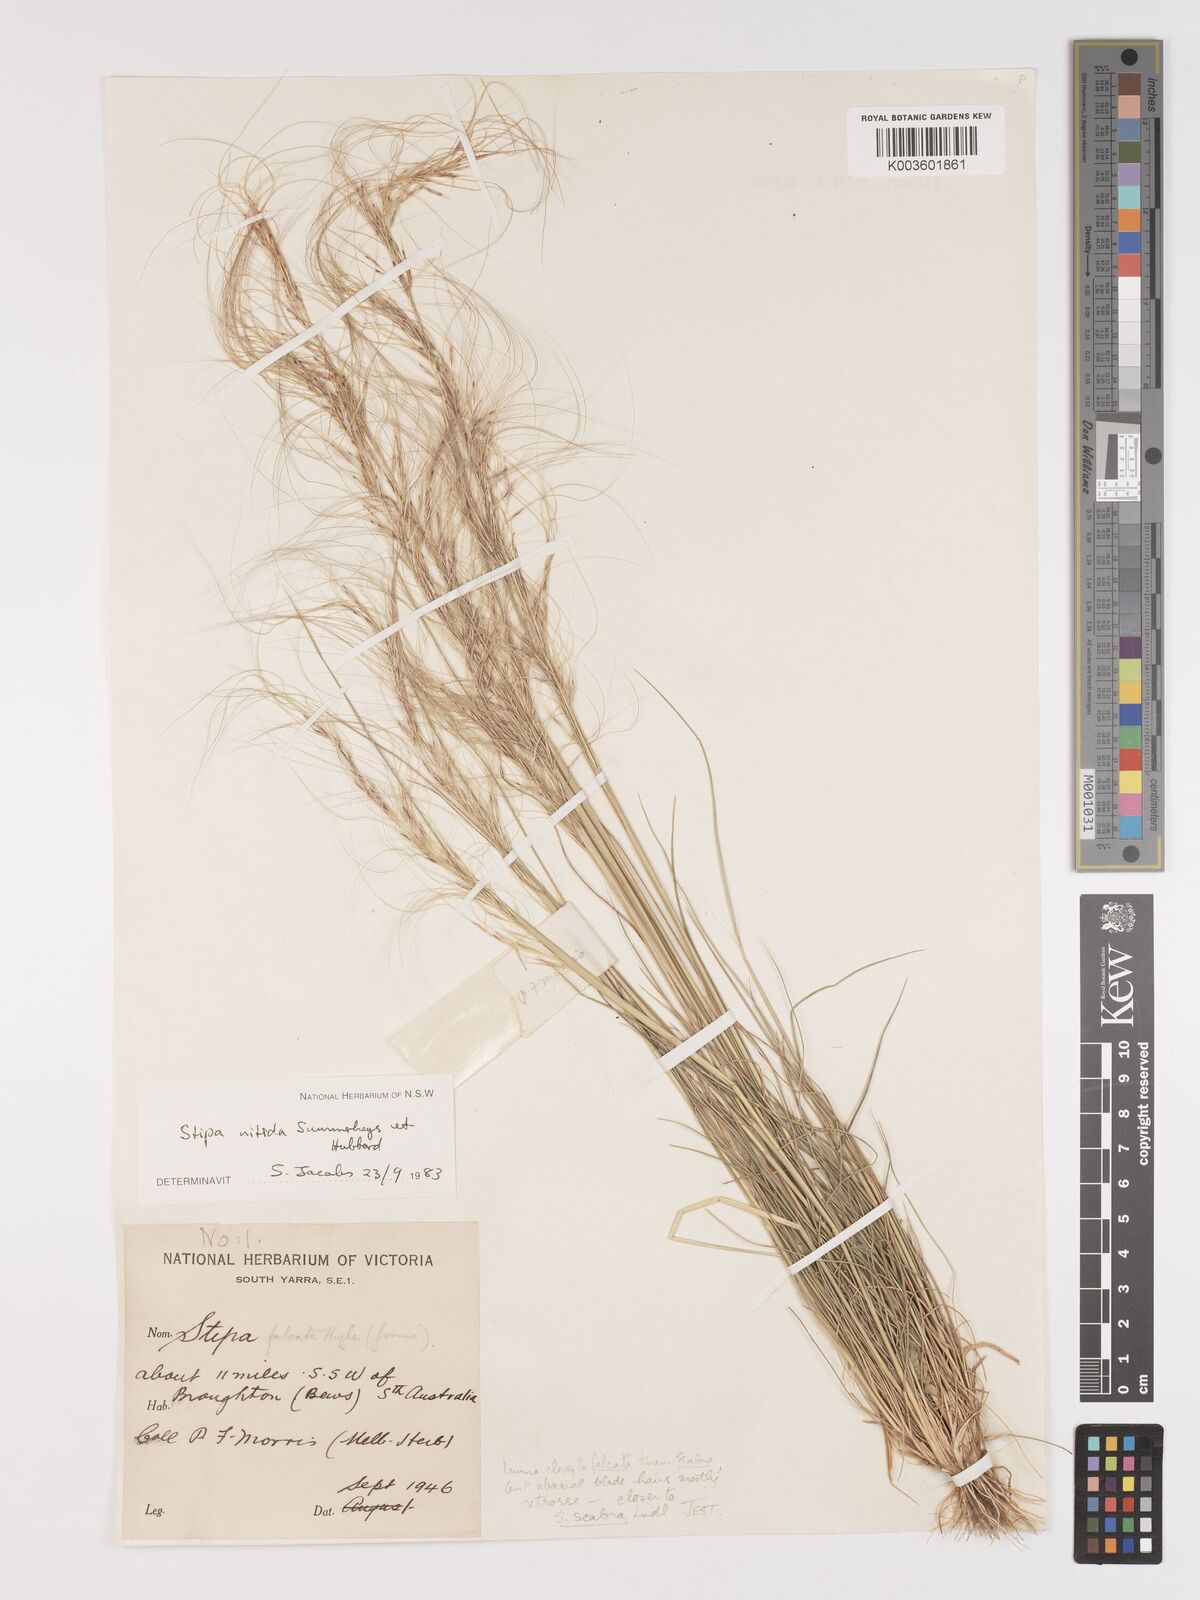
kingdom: Plantae
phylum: Tracheophyta
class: Liliopsida
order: Poales
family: Poaceae
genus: Austrostipa
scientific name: Austrostipa nitida
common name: Balcarra grass
